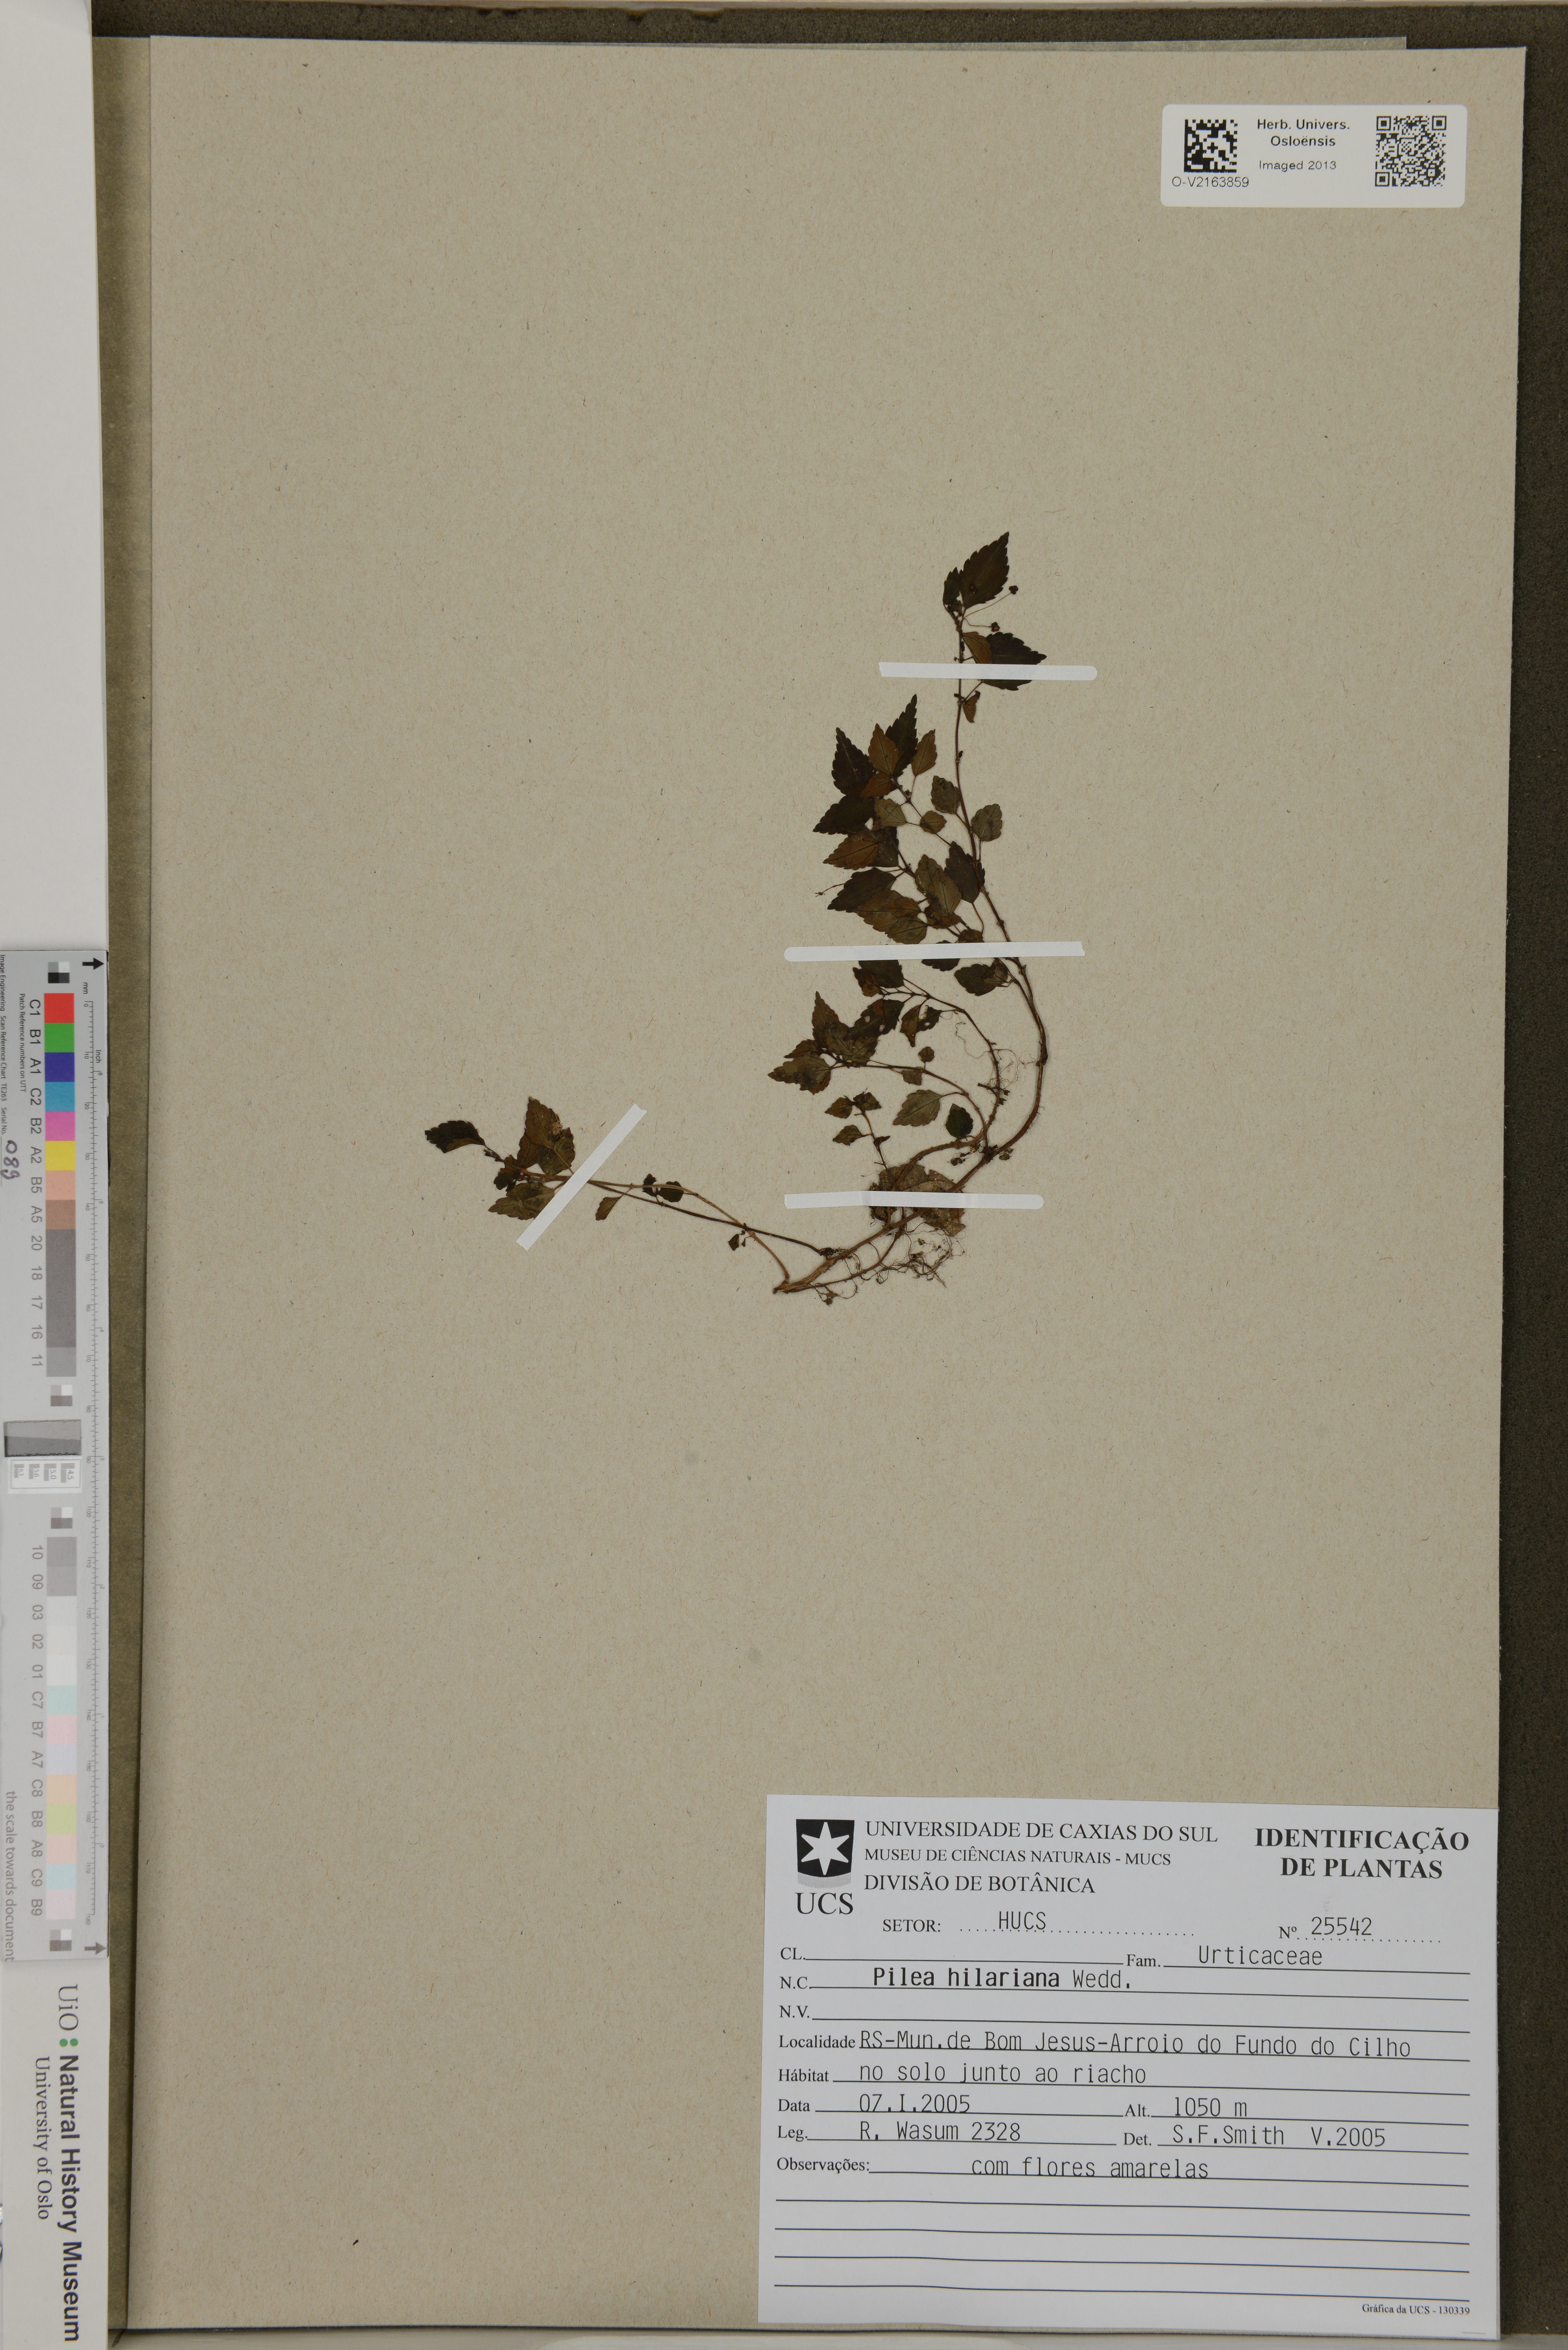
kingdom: Plantae
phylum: Tracheophyta
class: Magnoliopsida
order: Rosales
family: Urticaceae
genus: Pilea
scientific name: Pilea hilariana
